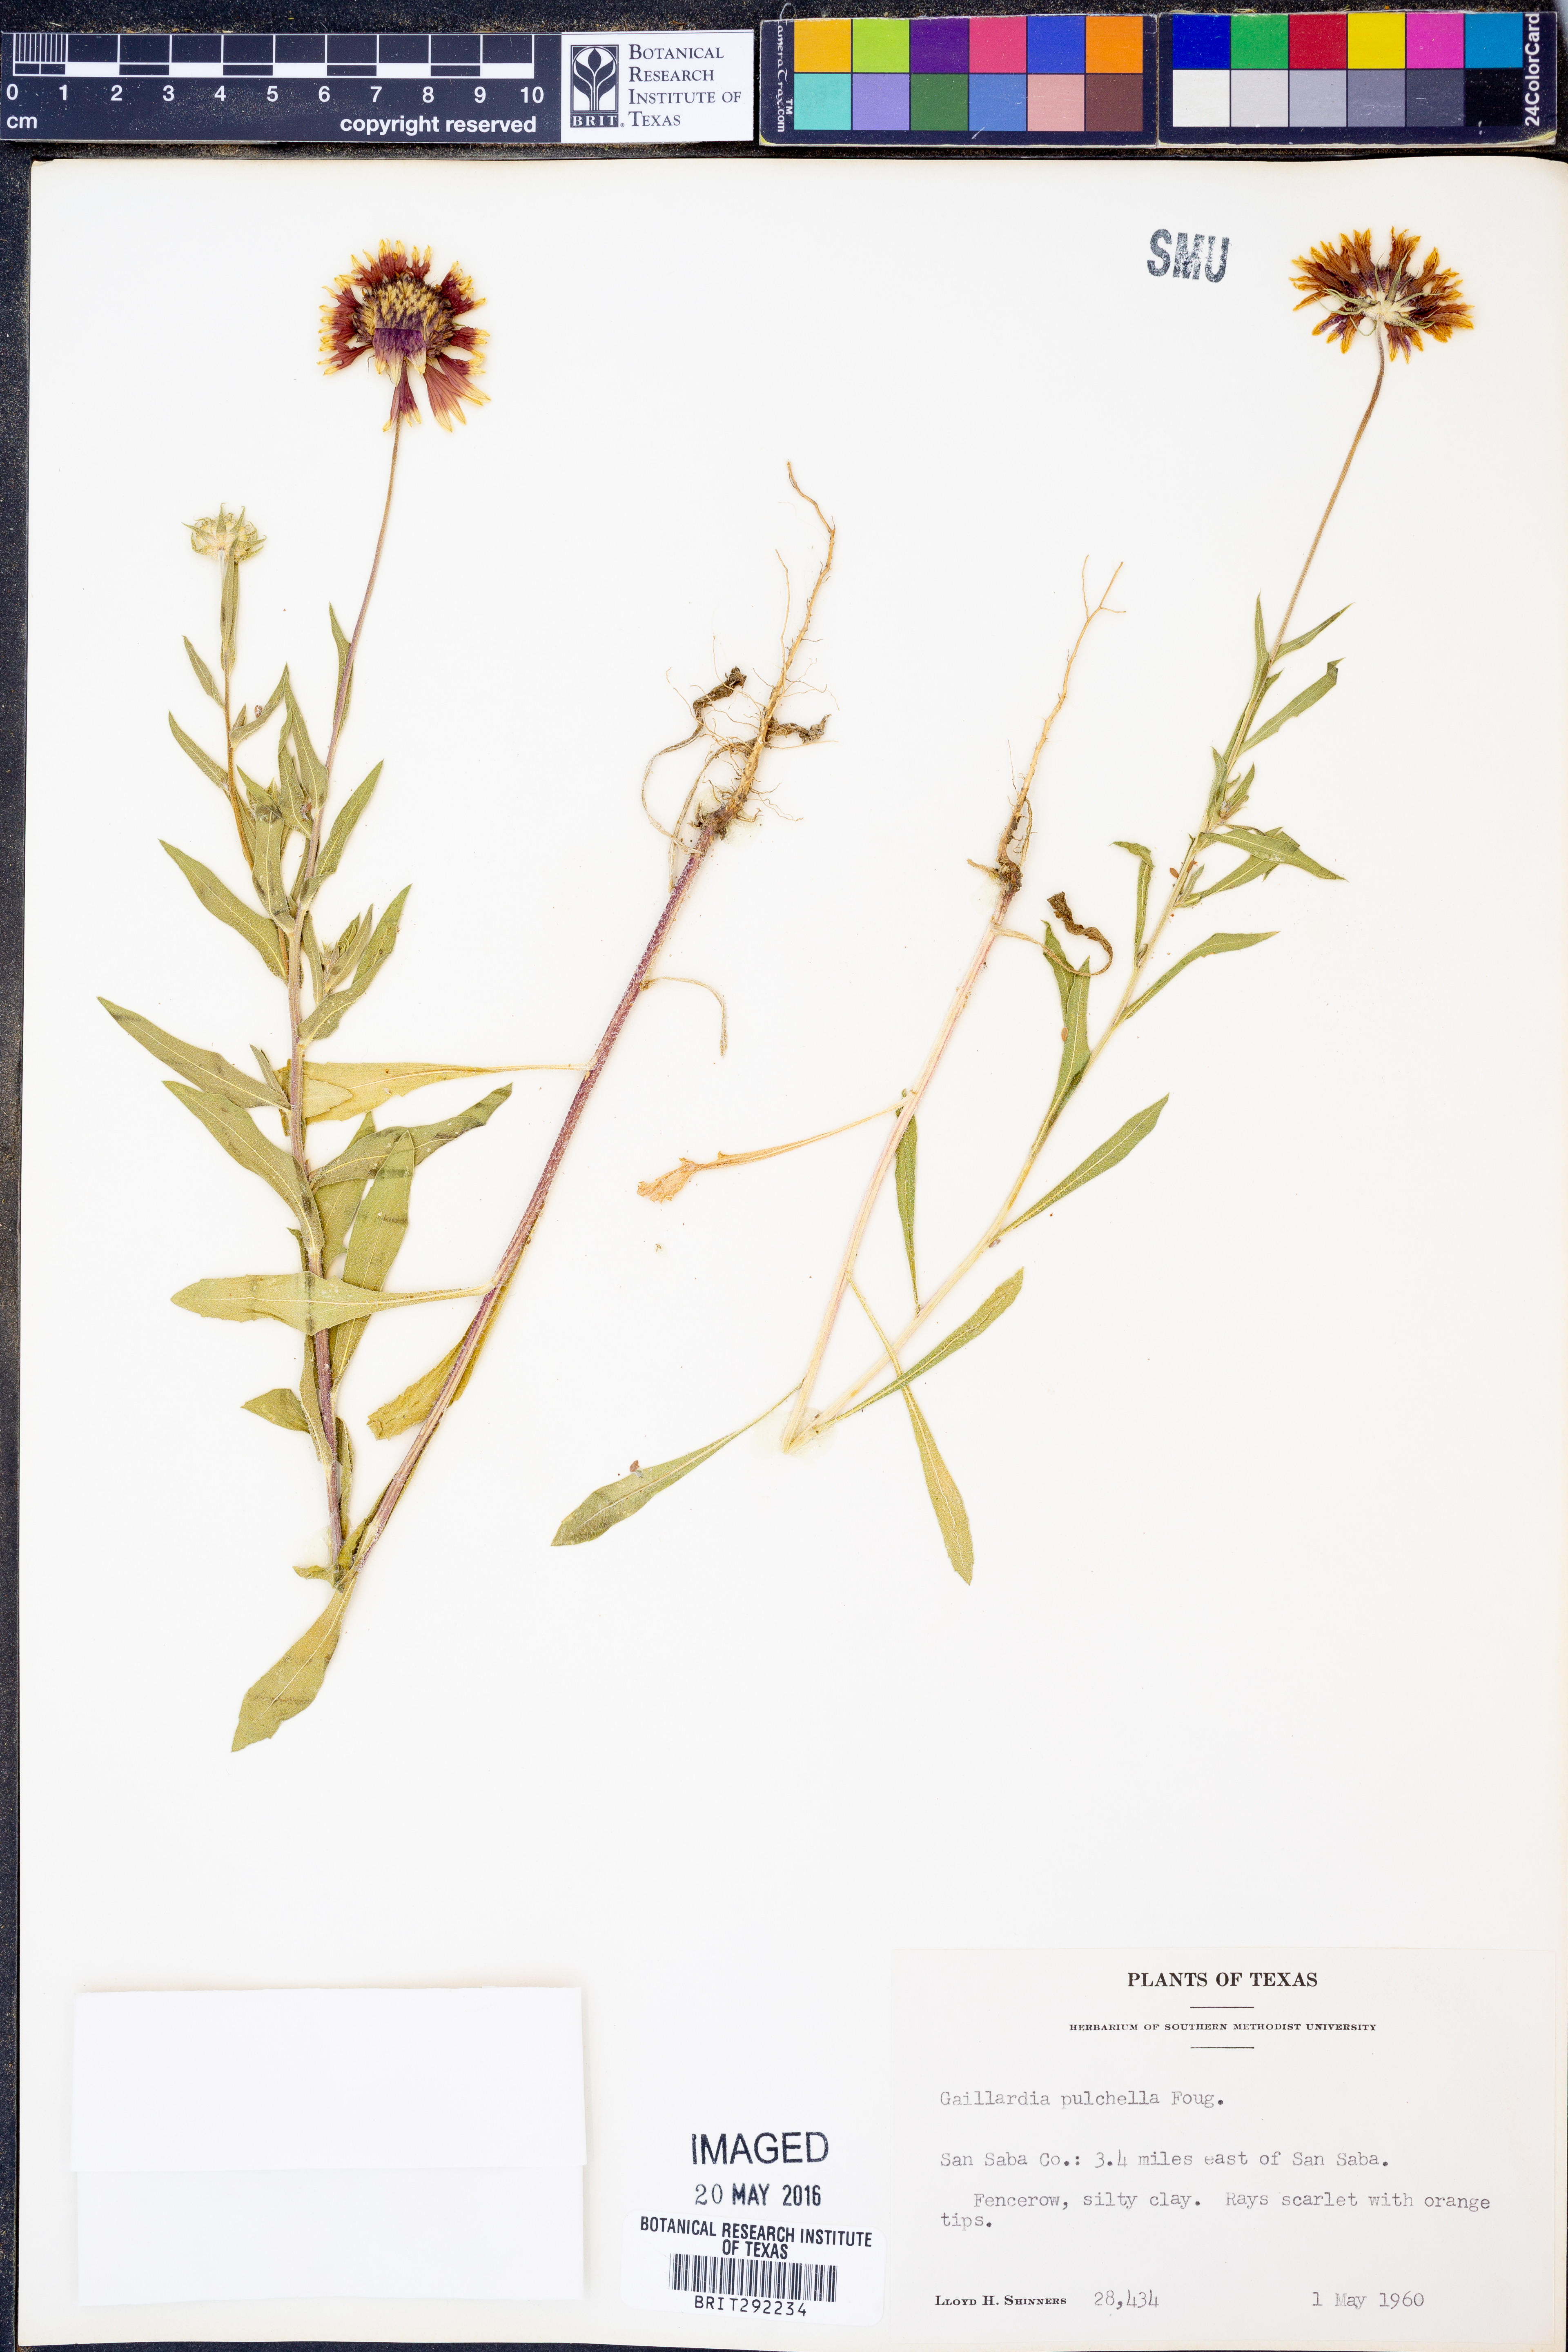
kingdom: Plantae
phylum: Tracheophyta
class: Magnoliopsida
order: Asterales
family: Asteraceae
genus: Gaillardia
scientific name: Gaillardia pulchella
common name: Firewheel
